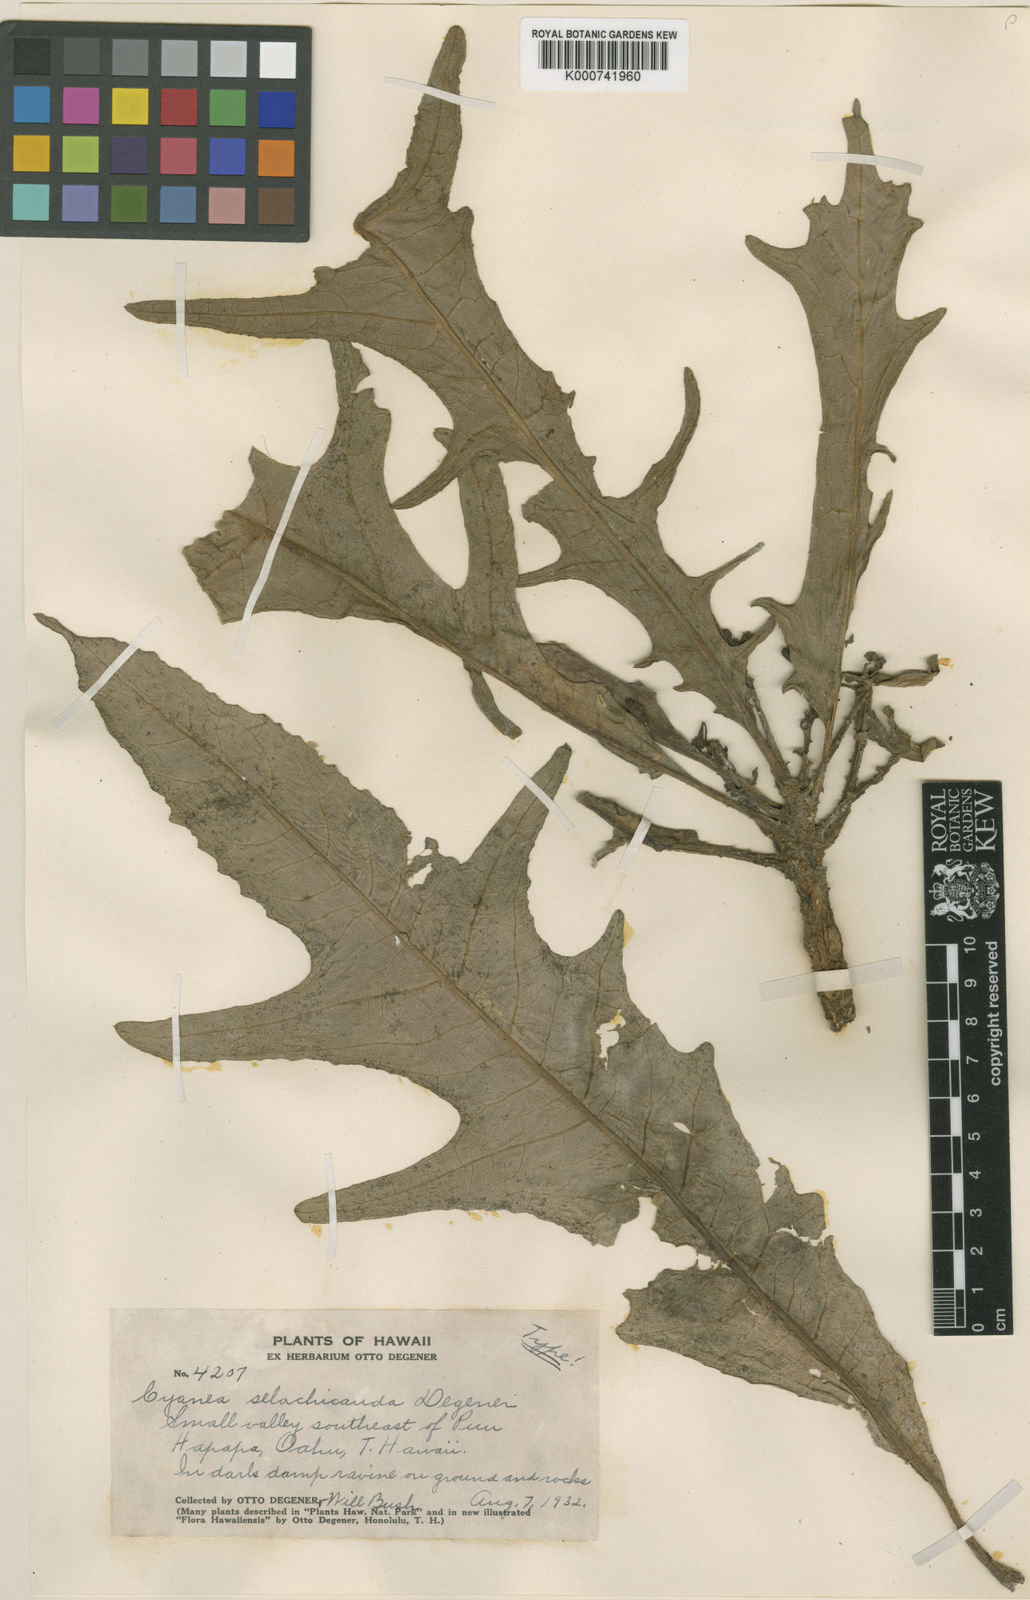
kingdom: Plantae
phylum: Tracheophyta
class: Magnoliopsida
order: Asterales
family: Campanulaceae
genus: Cyanea
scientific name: Cyanea pinnatifida
